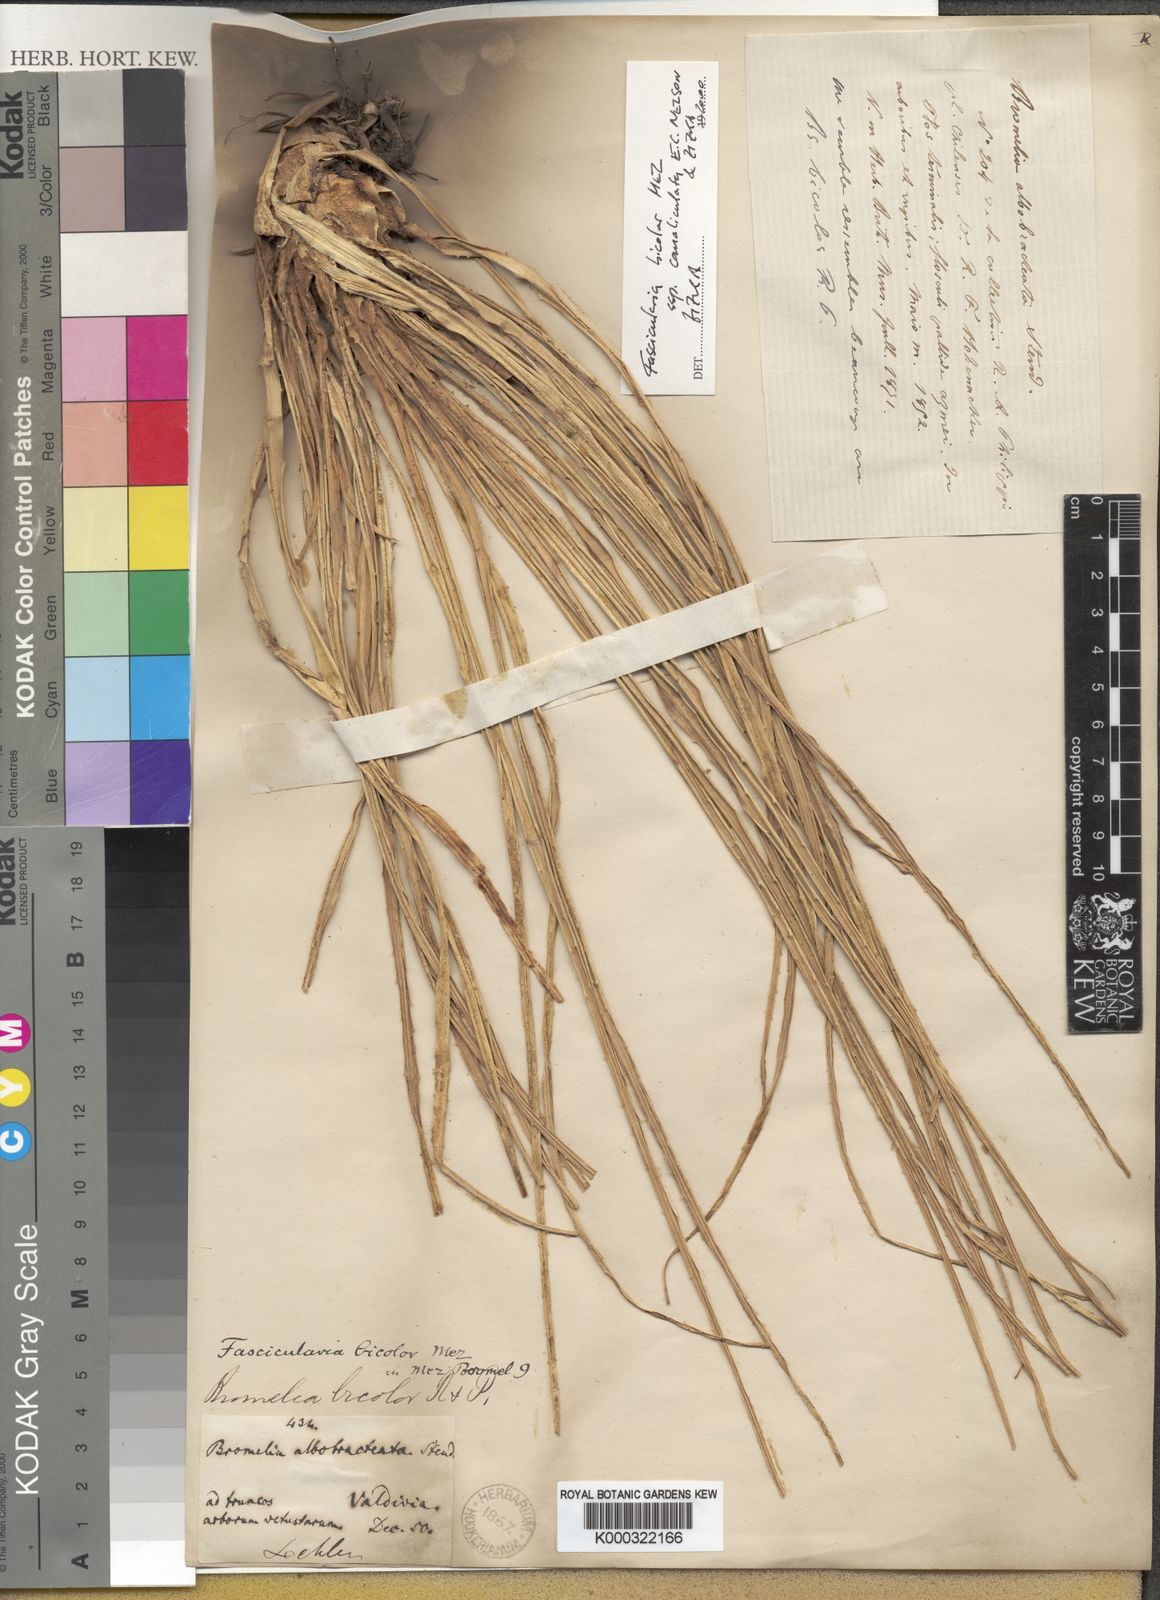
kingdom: Plantae
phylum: Tracheophyta
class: Liliopsida
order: Poales
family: Bromeliaceae
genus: Fascicularia
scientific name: Fascicularia bicolor
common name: Rhodostachys
